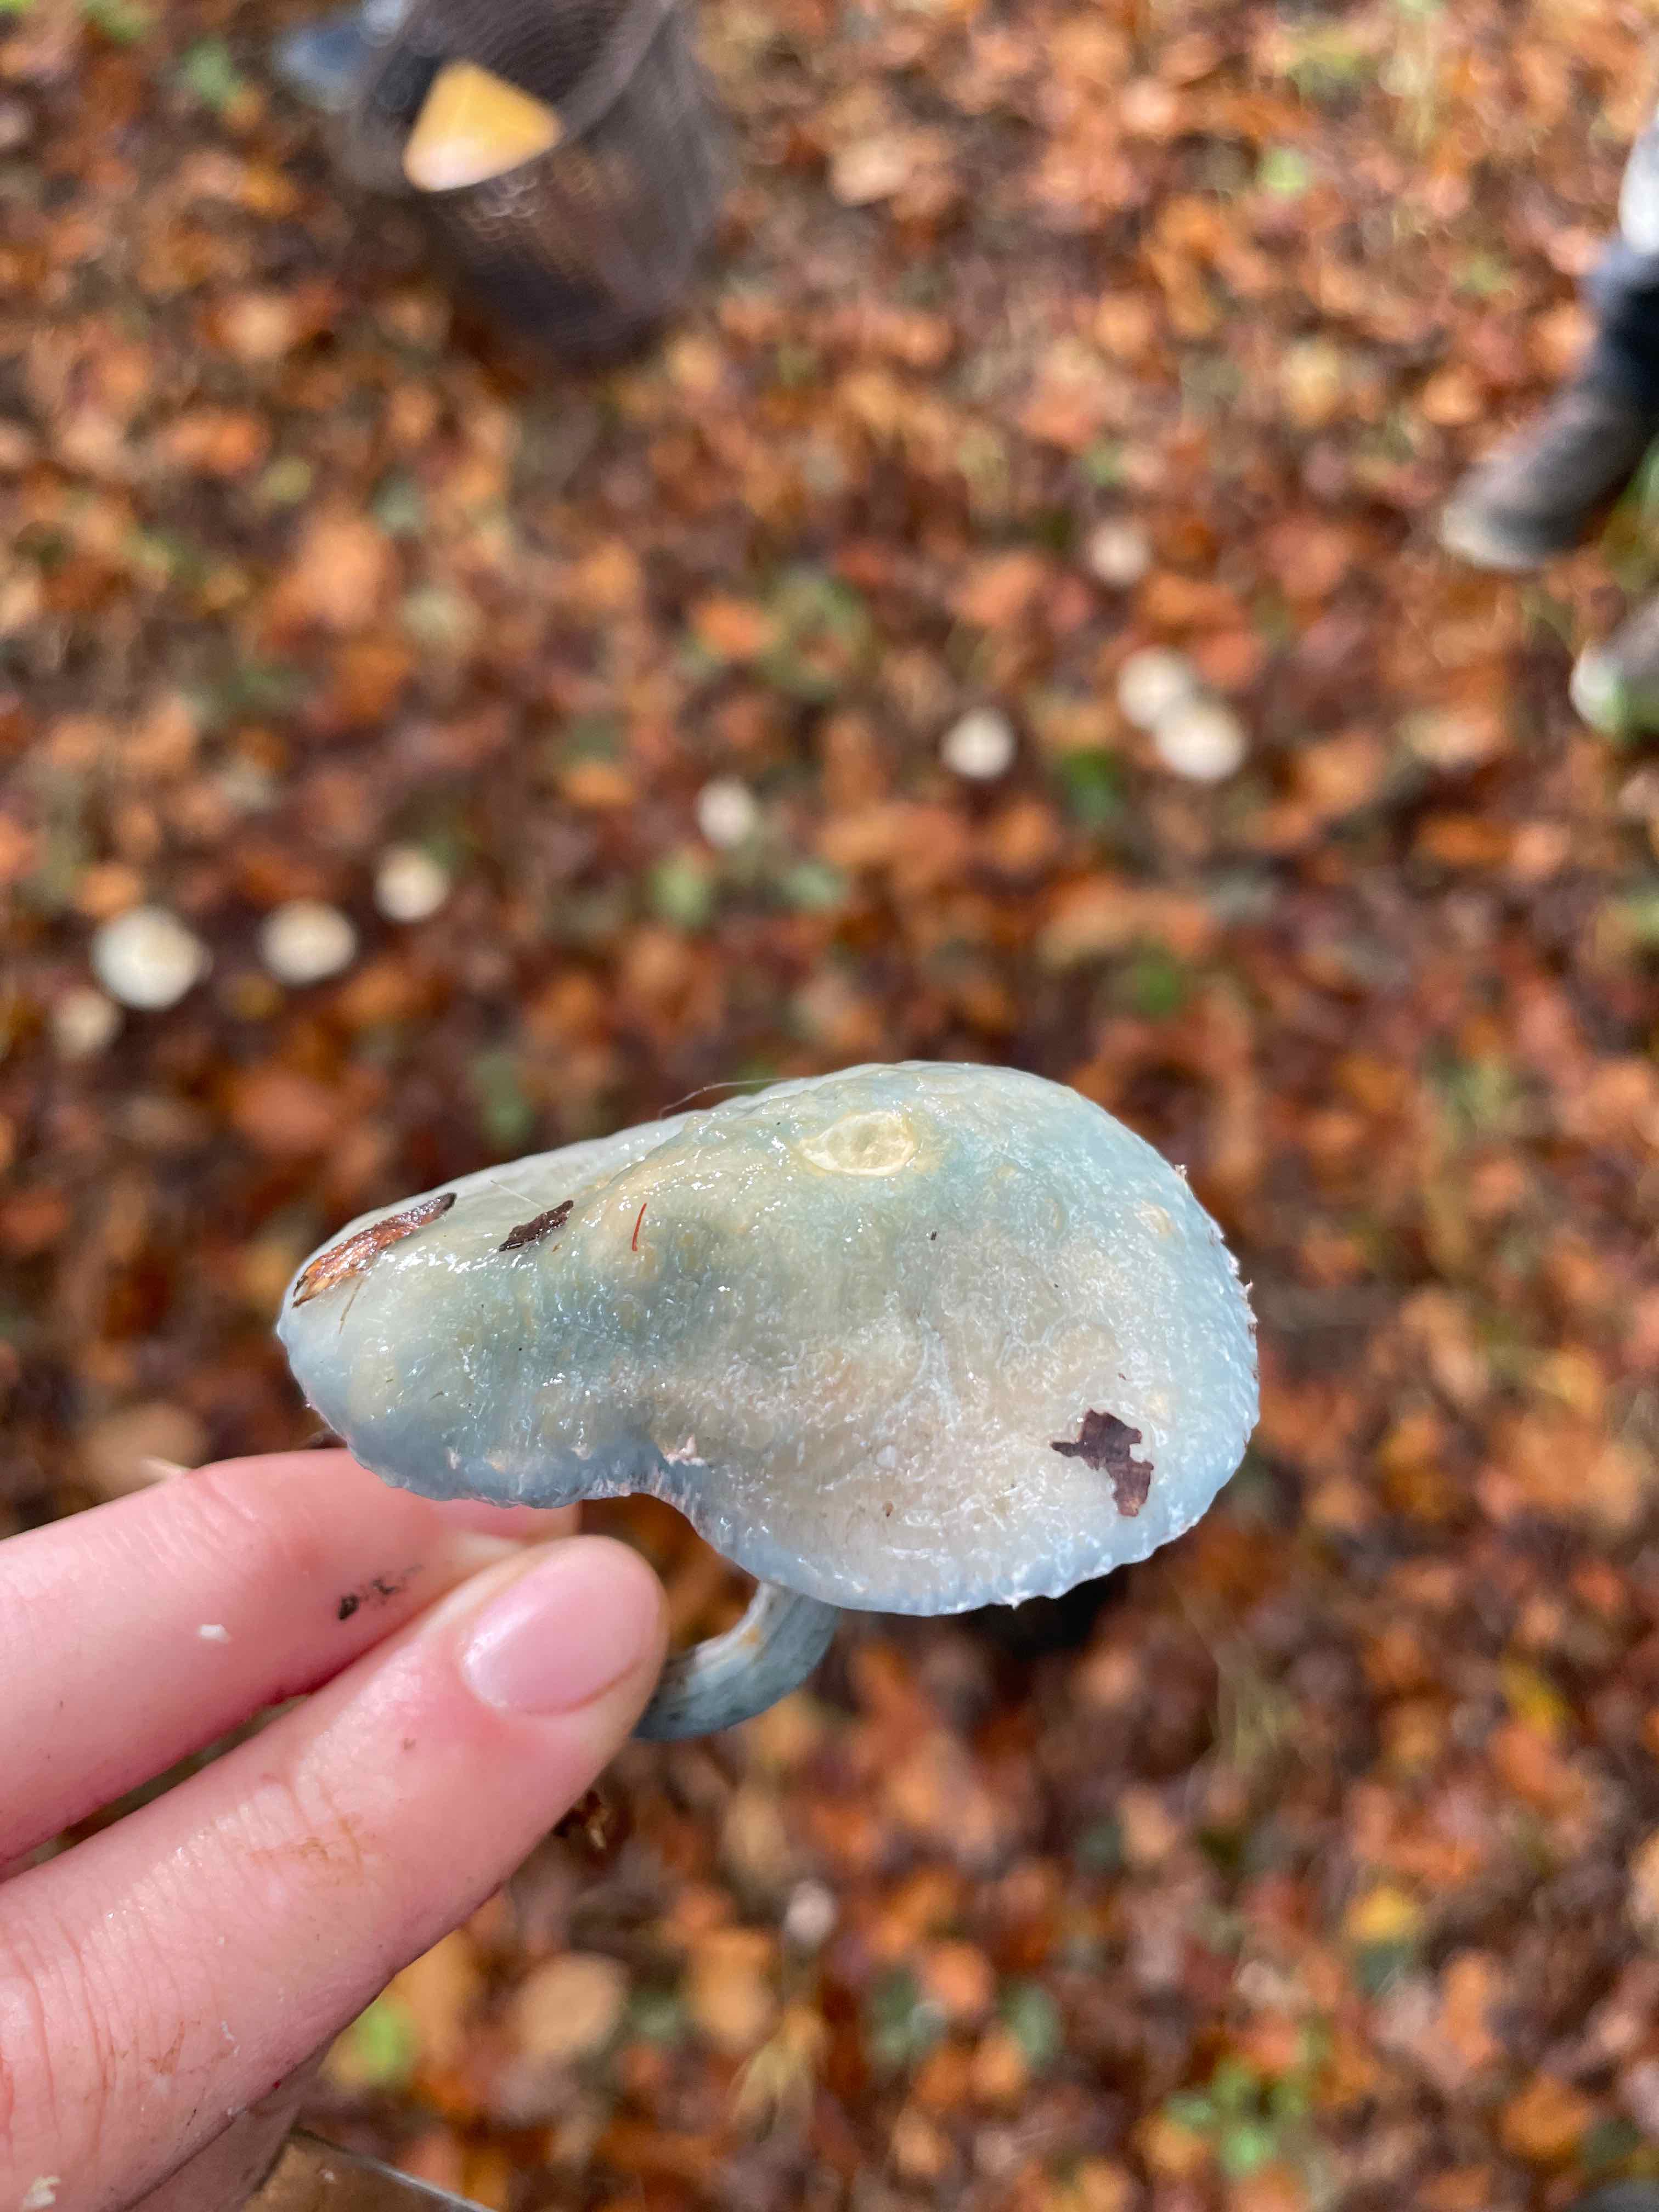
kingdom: Fungi
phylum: Basidiomycota
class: Agaricomycetes
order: Agaricales
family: Strophariaceae
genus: Stropharia
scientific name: Stropharia cyanea
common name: blågrøn bredblad
